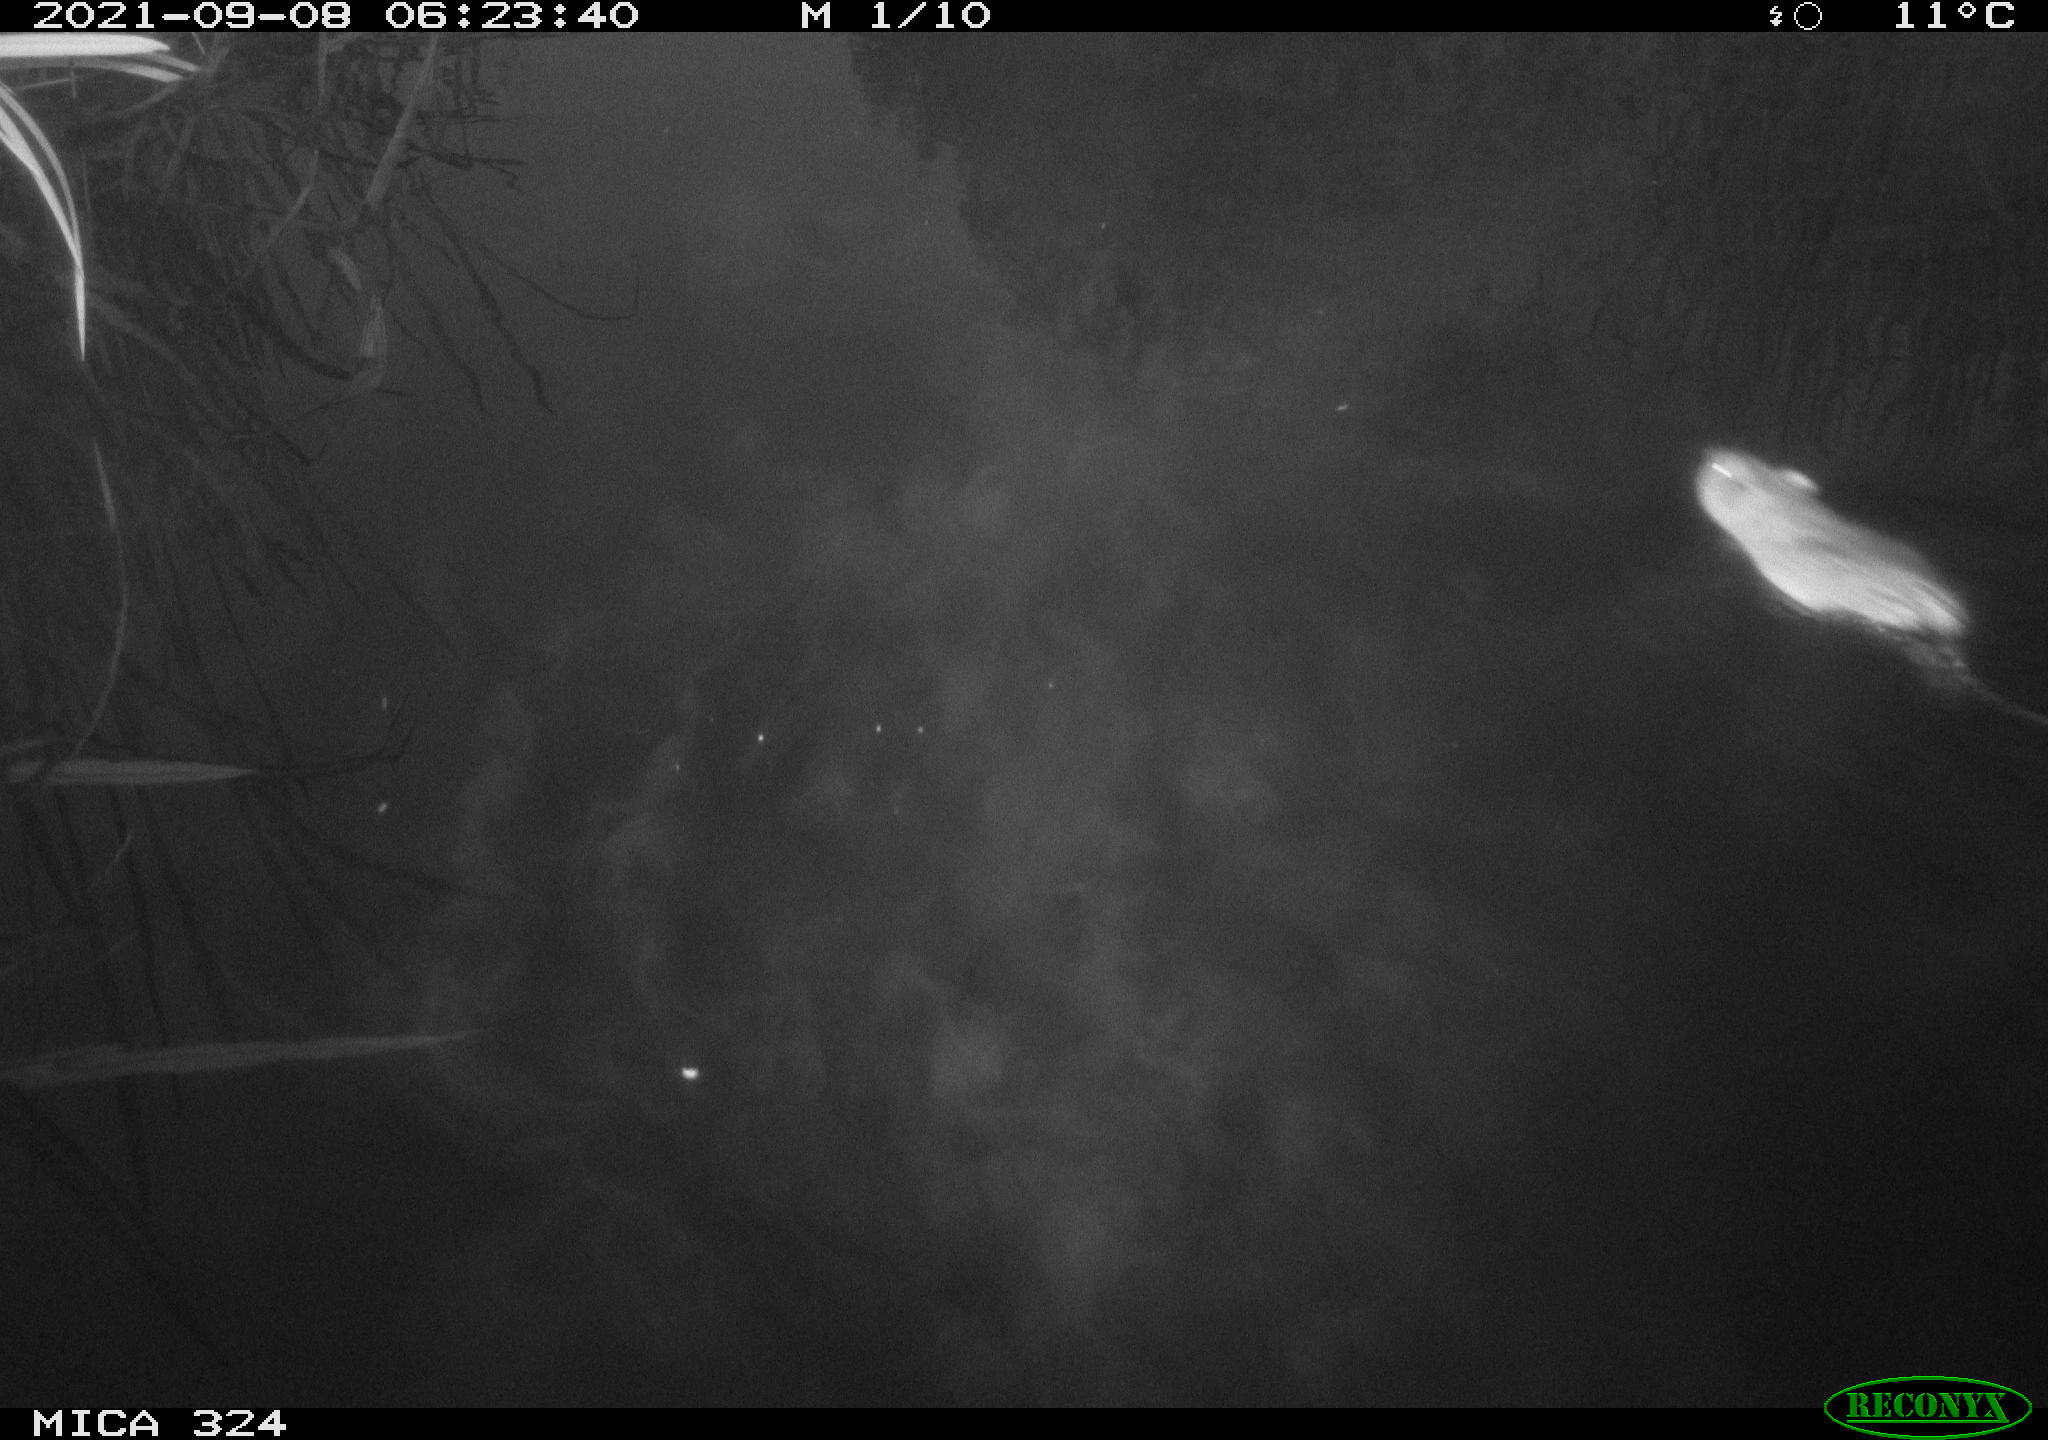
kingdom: Animalia
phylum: Chordata
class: Mammalia
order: Rodentia
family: Cricetidae
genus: Ondatra
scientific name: Ondatra zibethicus
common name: Muskrat
